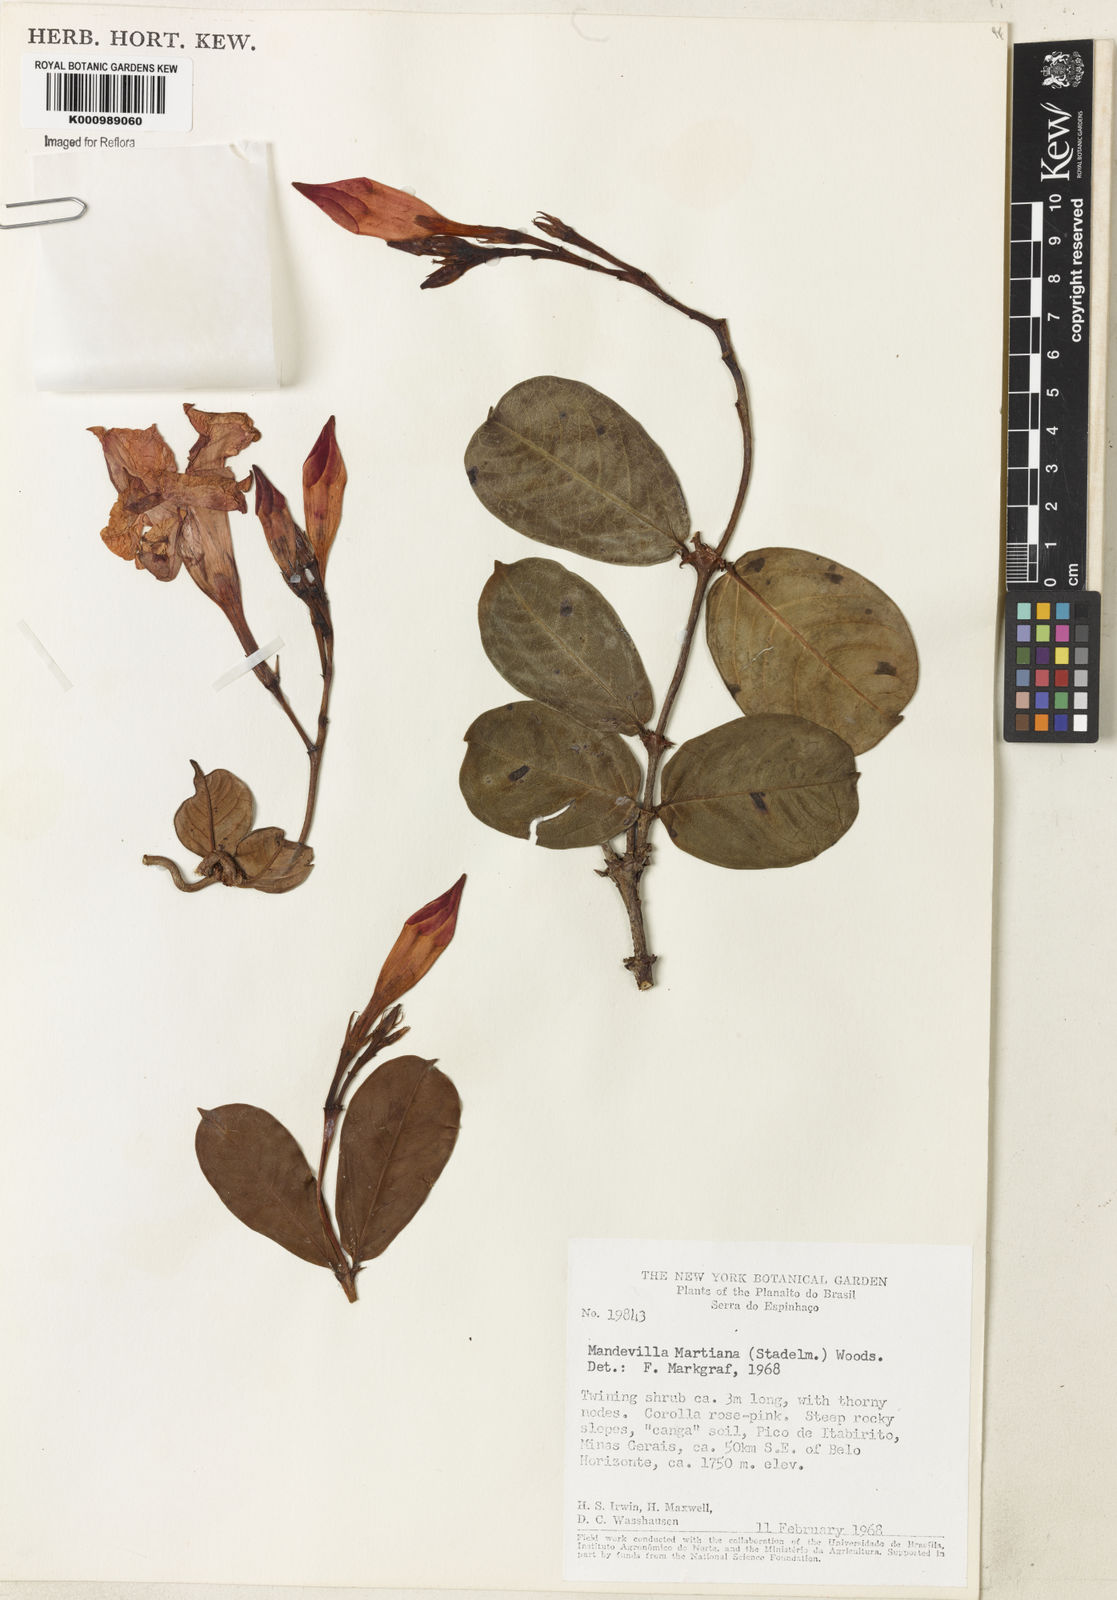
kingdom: Plantae
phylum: Tracheophyta
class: Magnoliopsida
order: Gentianales
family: Apocynaceae
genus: Mandevilla
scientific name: Mandevilla martiana
